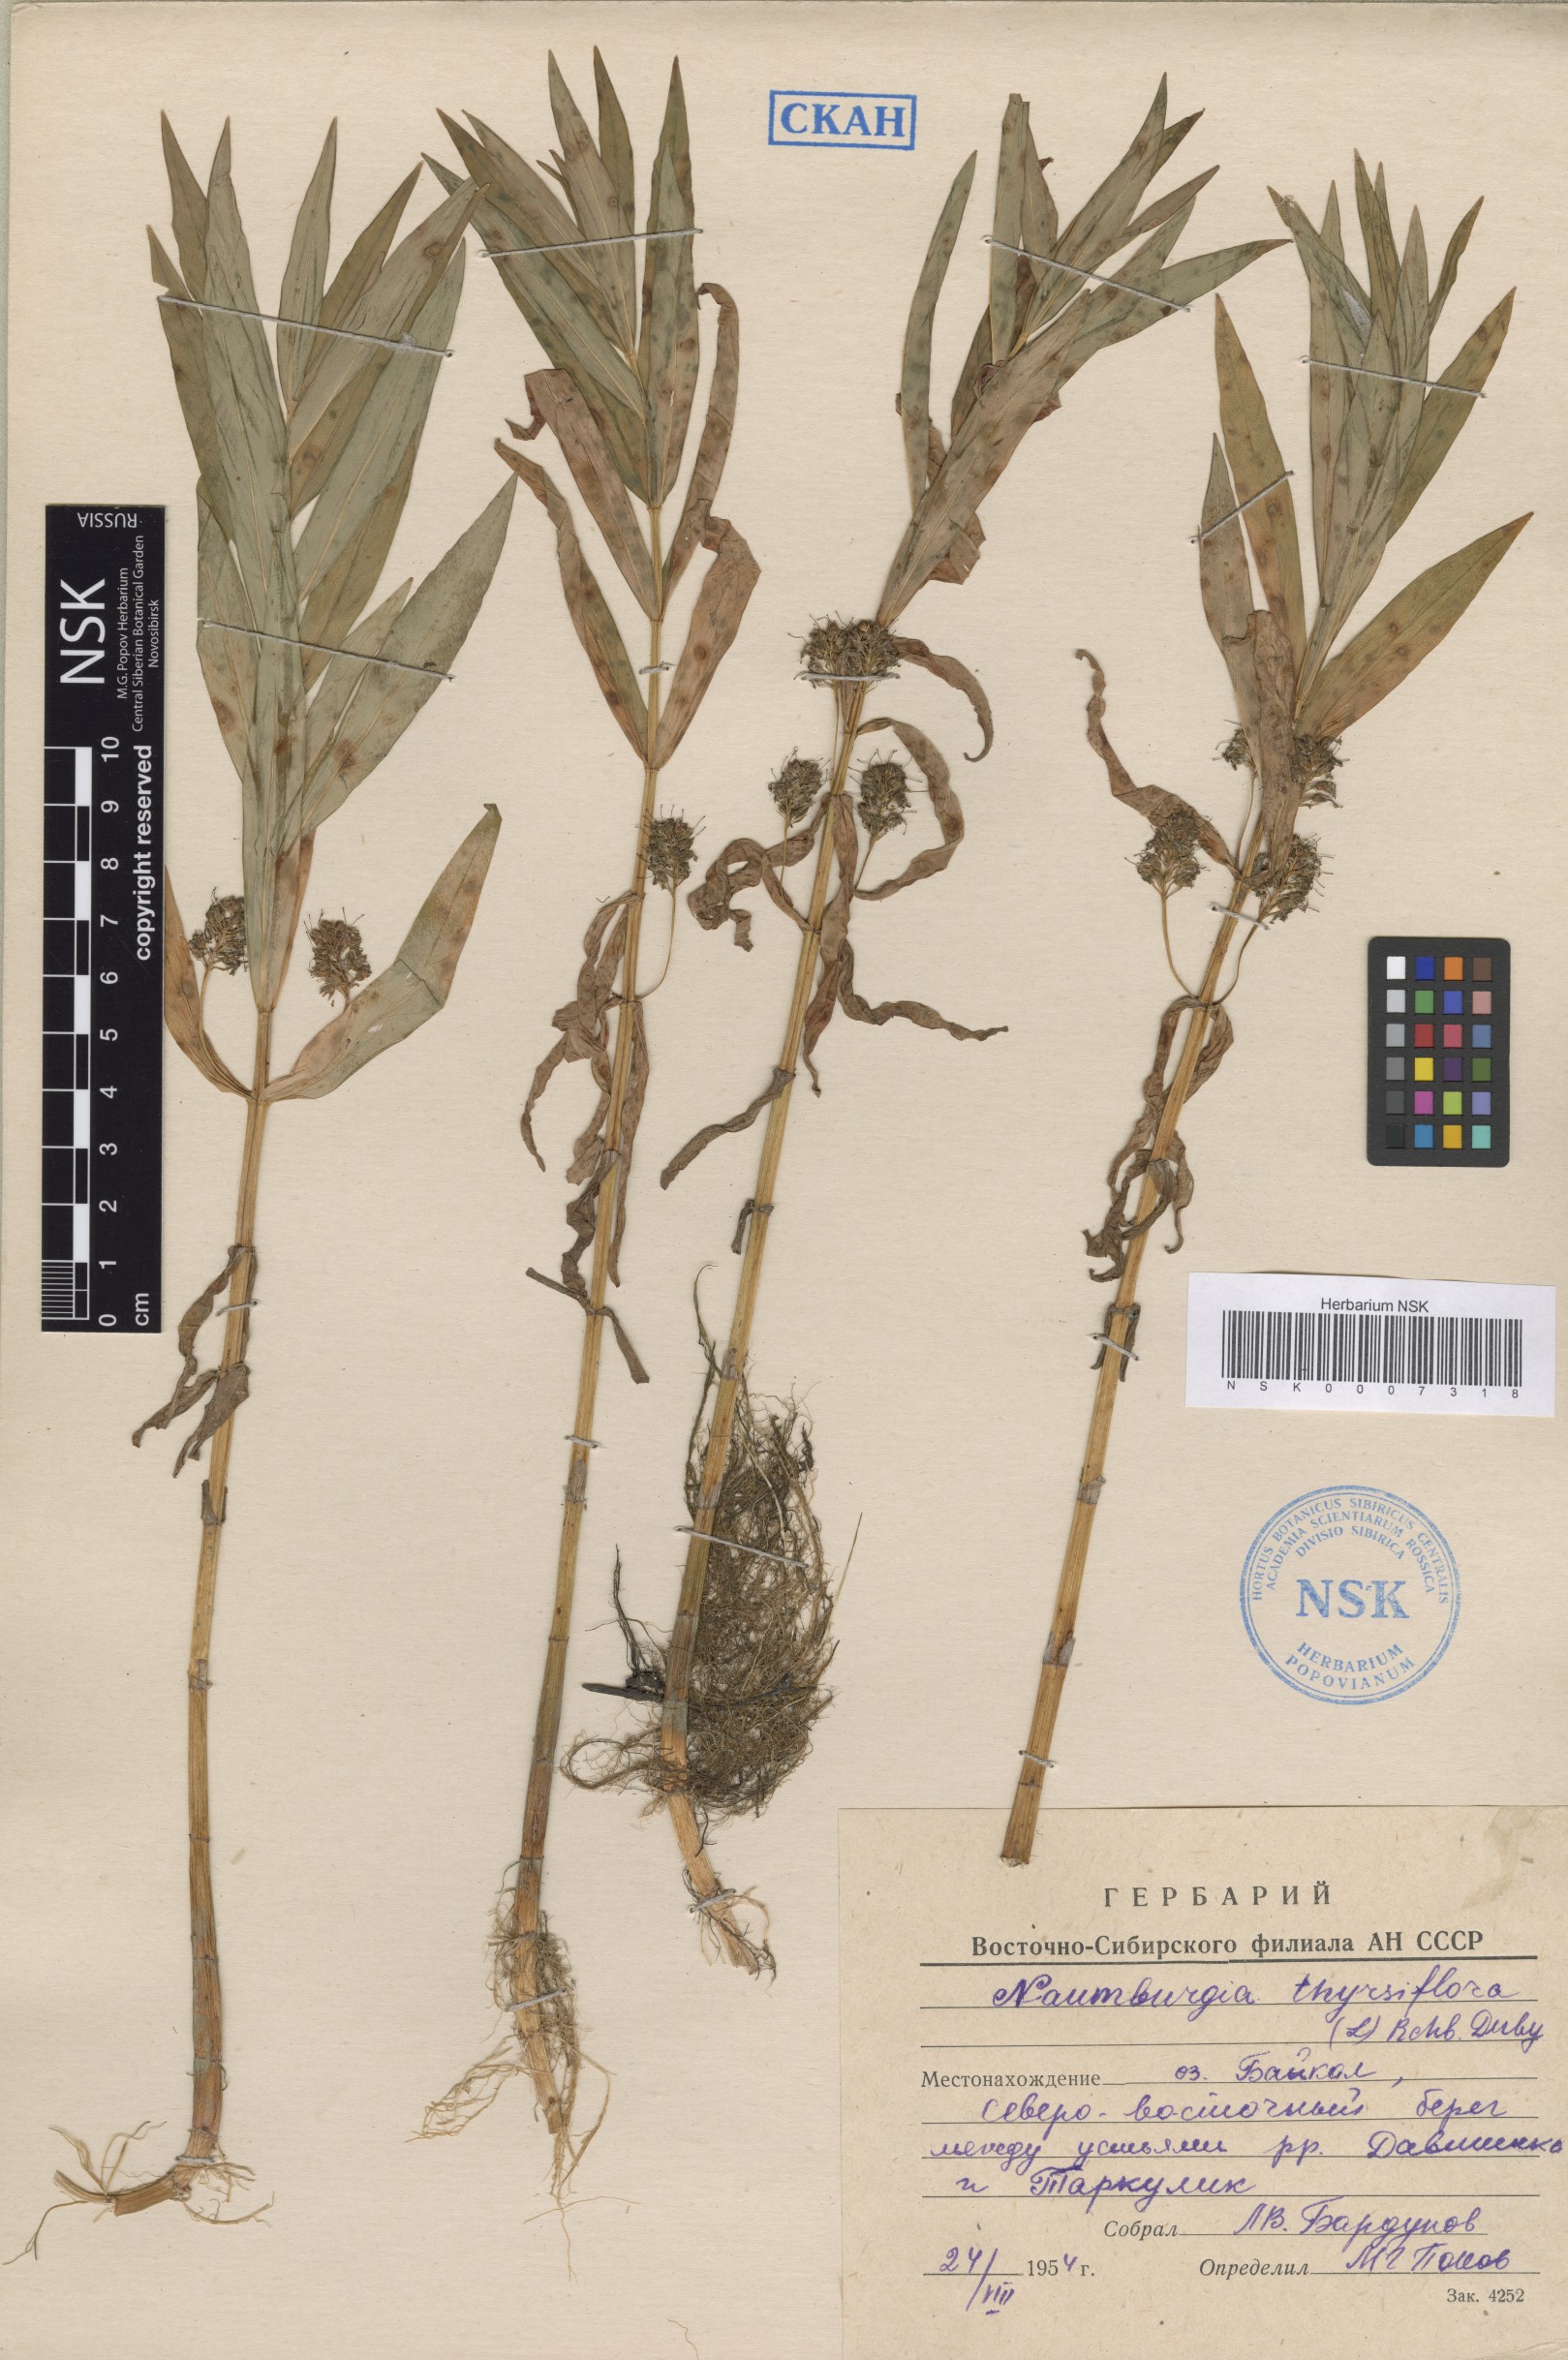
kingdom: Plantae
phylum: Tracheophyta
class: Magnoliopsida
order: Ericales
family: Primulaceae
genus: Lysimachia
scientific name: Lysimachia thyrsiflora
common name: Tufted loosestrife
